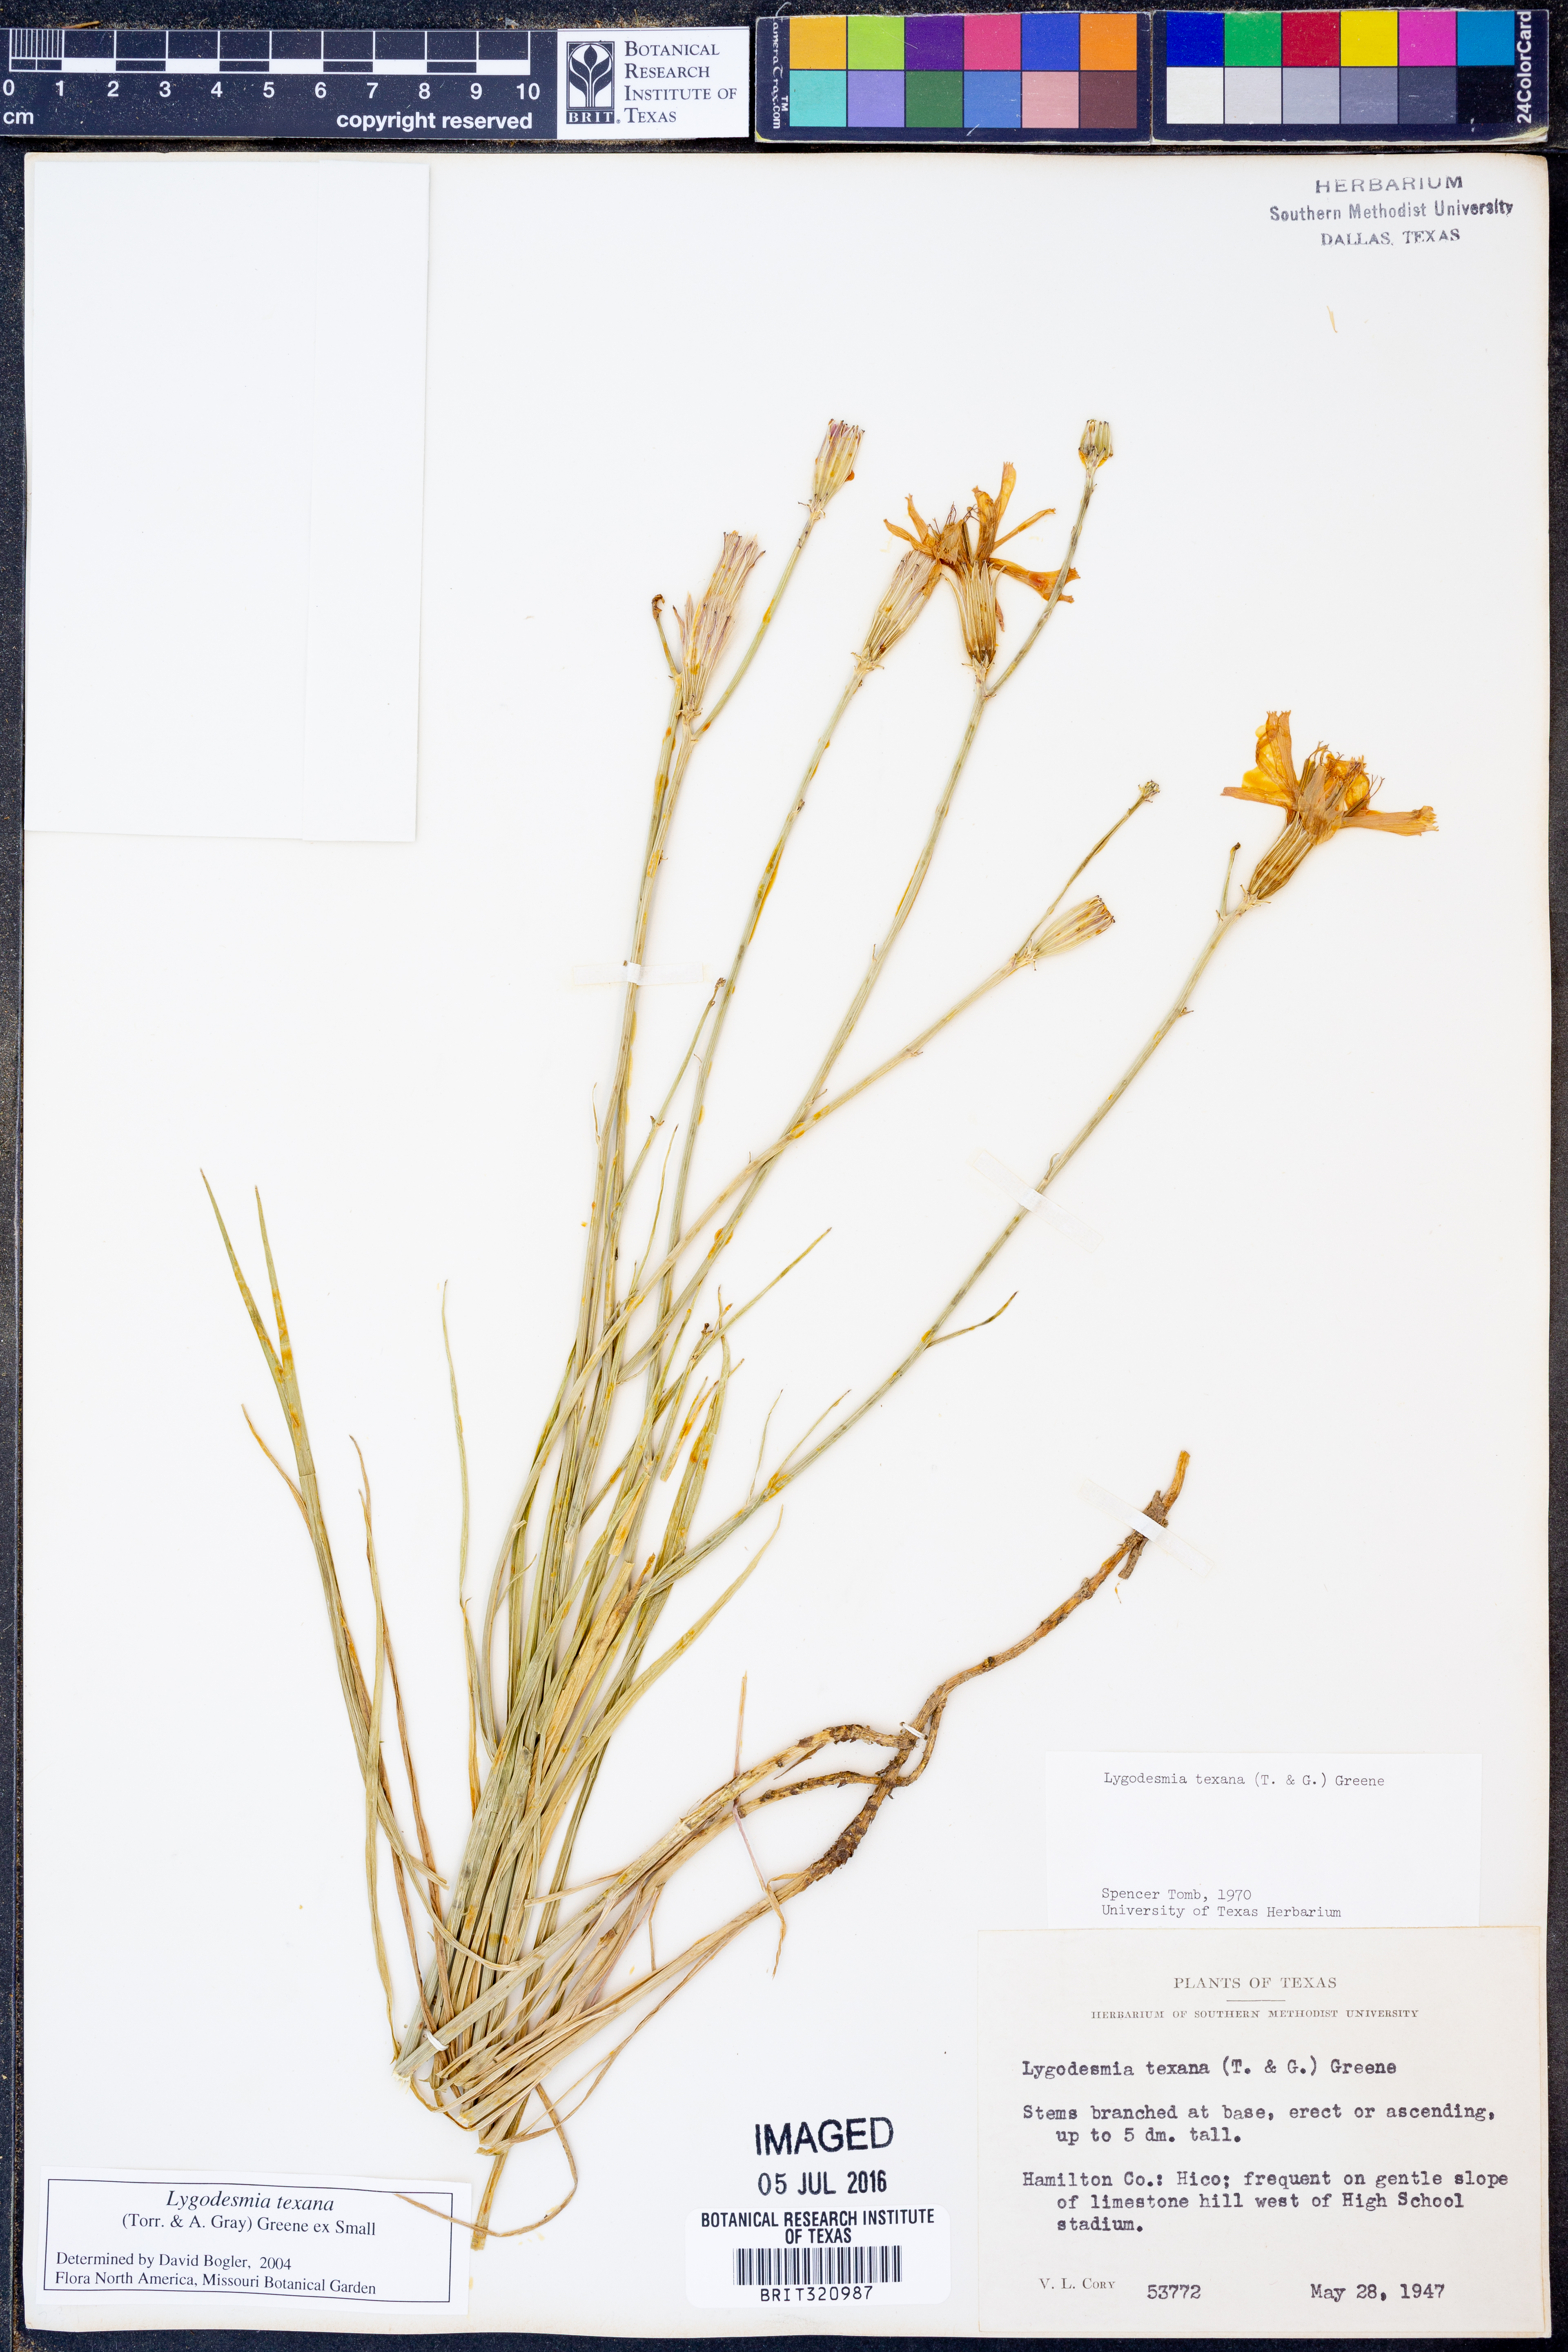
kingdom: Plantae
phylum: Tracheophyta
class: Magnoliopsida
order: Asterales
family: Asteraceae
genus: Lygodesmia
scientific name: Lygodesmia texana
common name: Texas skeleton-plant
